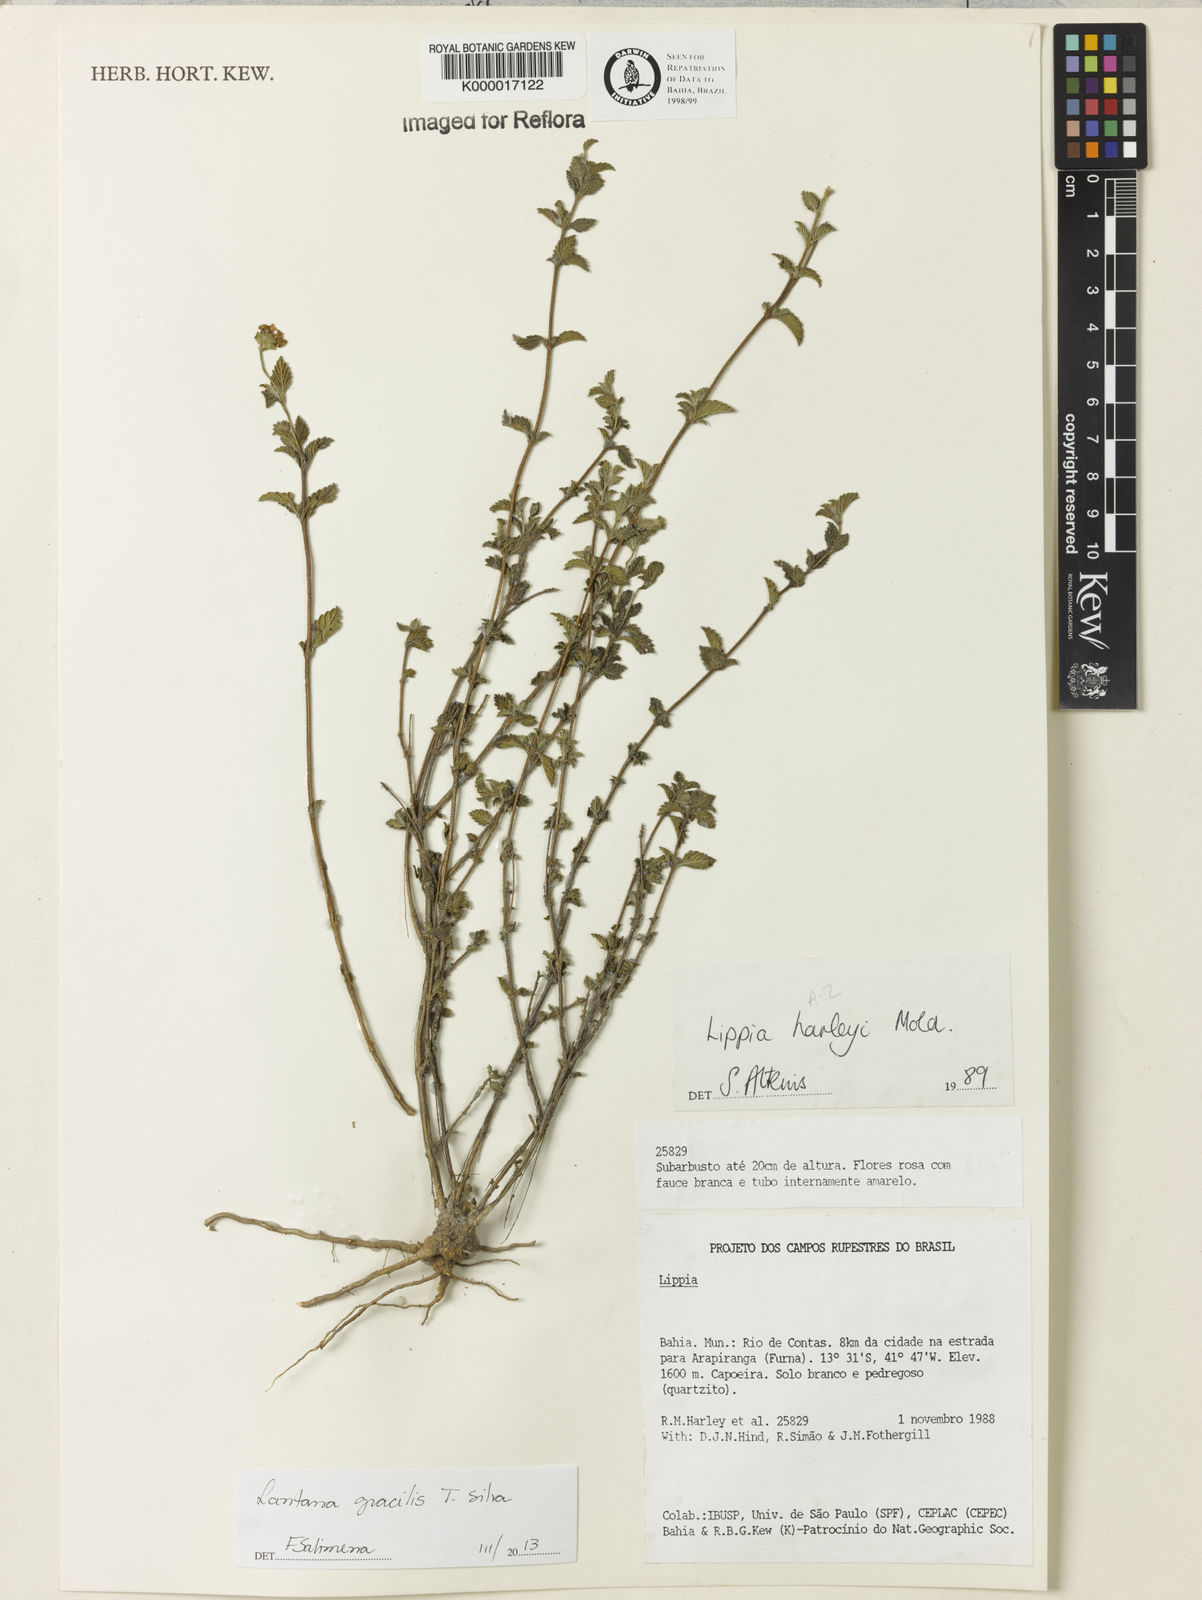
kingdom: Plantae
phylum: Tracheophyta
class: Magnoliopsida
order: Lamiales
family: Verbenaceae
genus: Lippia
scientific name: Lippia harleyi
